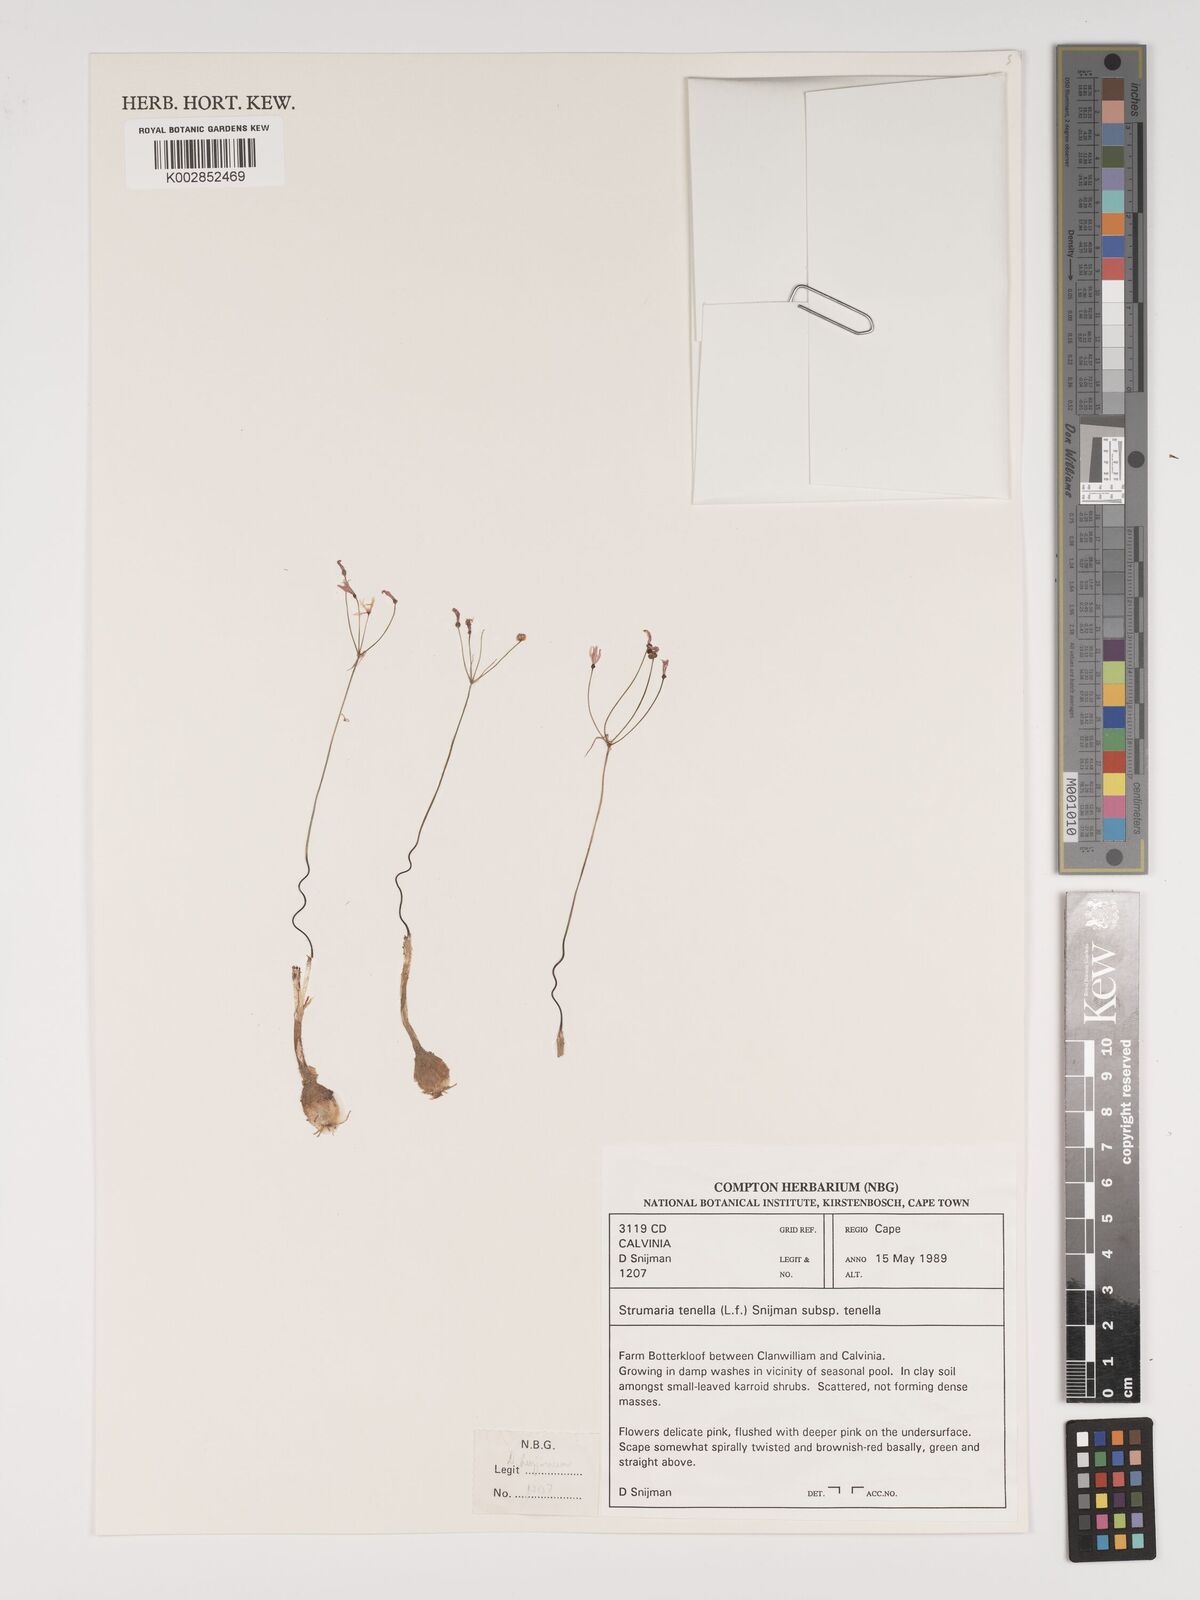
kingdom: Plantae
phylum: Tracheophyta
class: Liliopsida
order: Asparagales
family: Amaryllidaceae
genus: Strumaria
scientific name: Strumaria tenella
